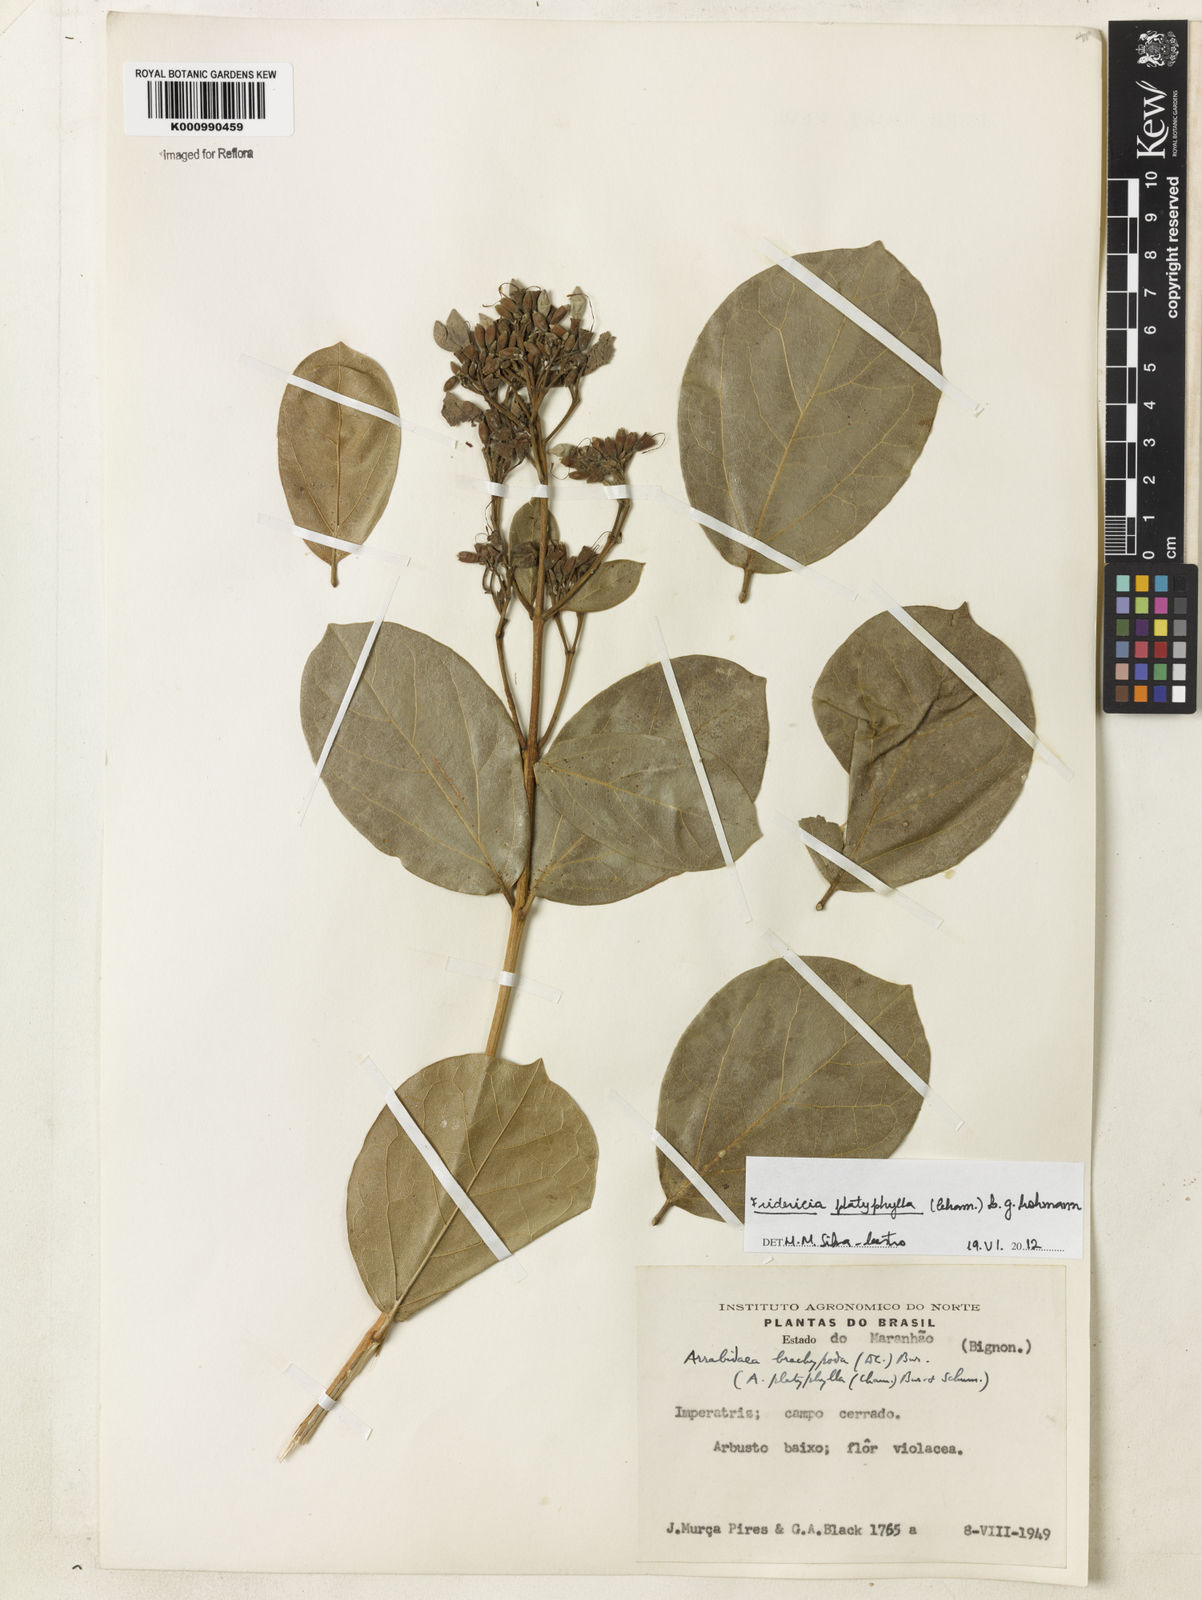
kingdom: Plantae
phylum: Tracheophyta
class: Magnoliopsida
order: Lamiales
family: Bignoniaceae
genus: Fridericia
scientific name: Fridericia platyphylla
